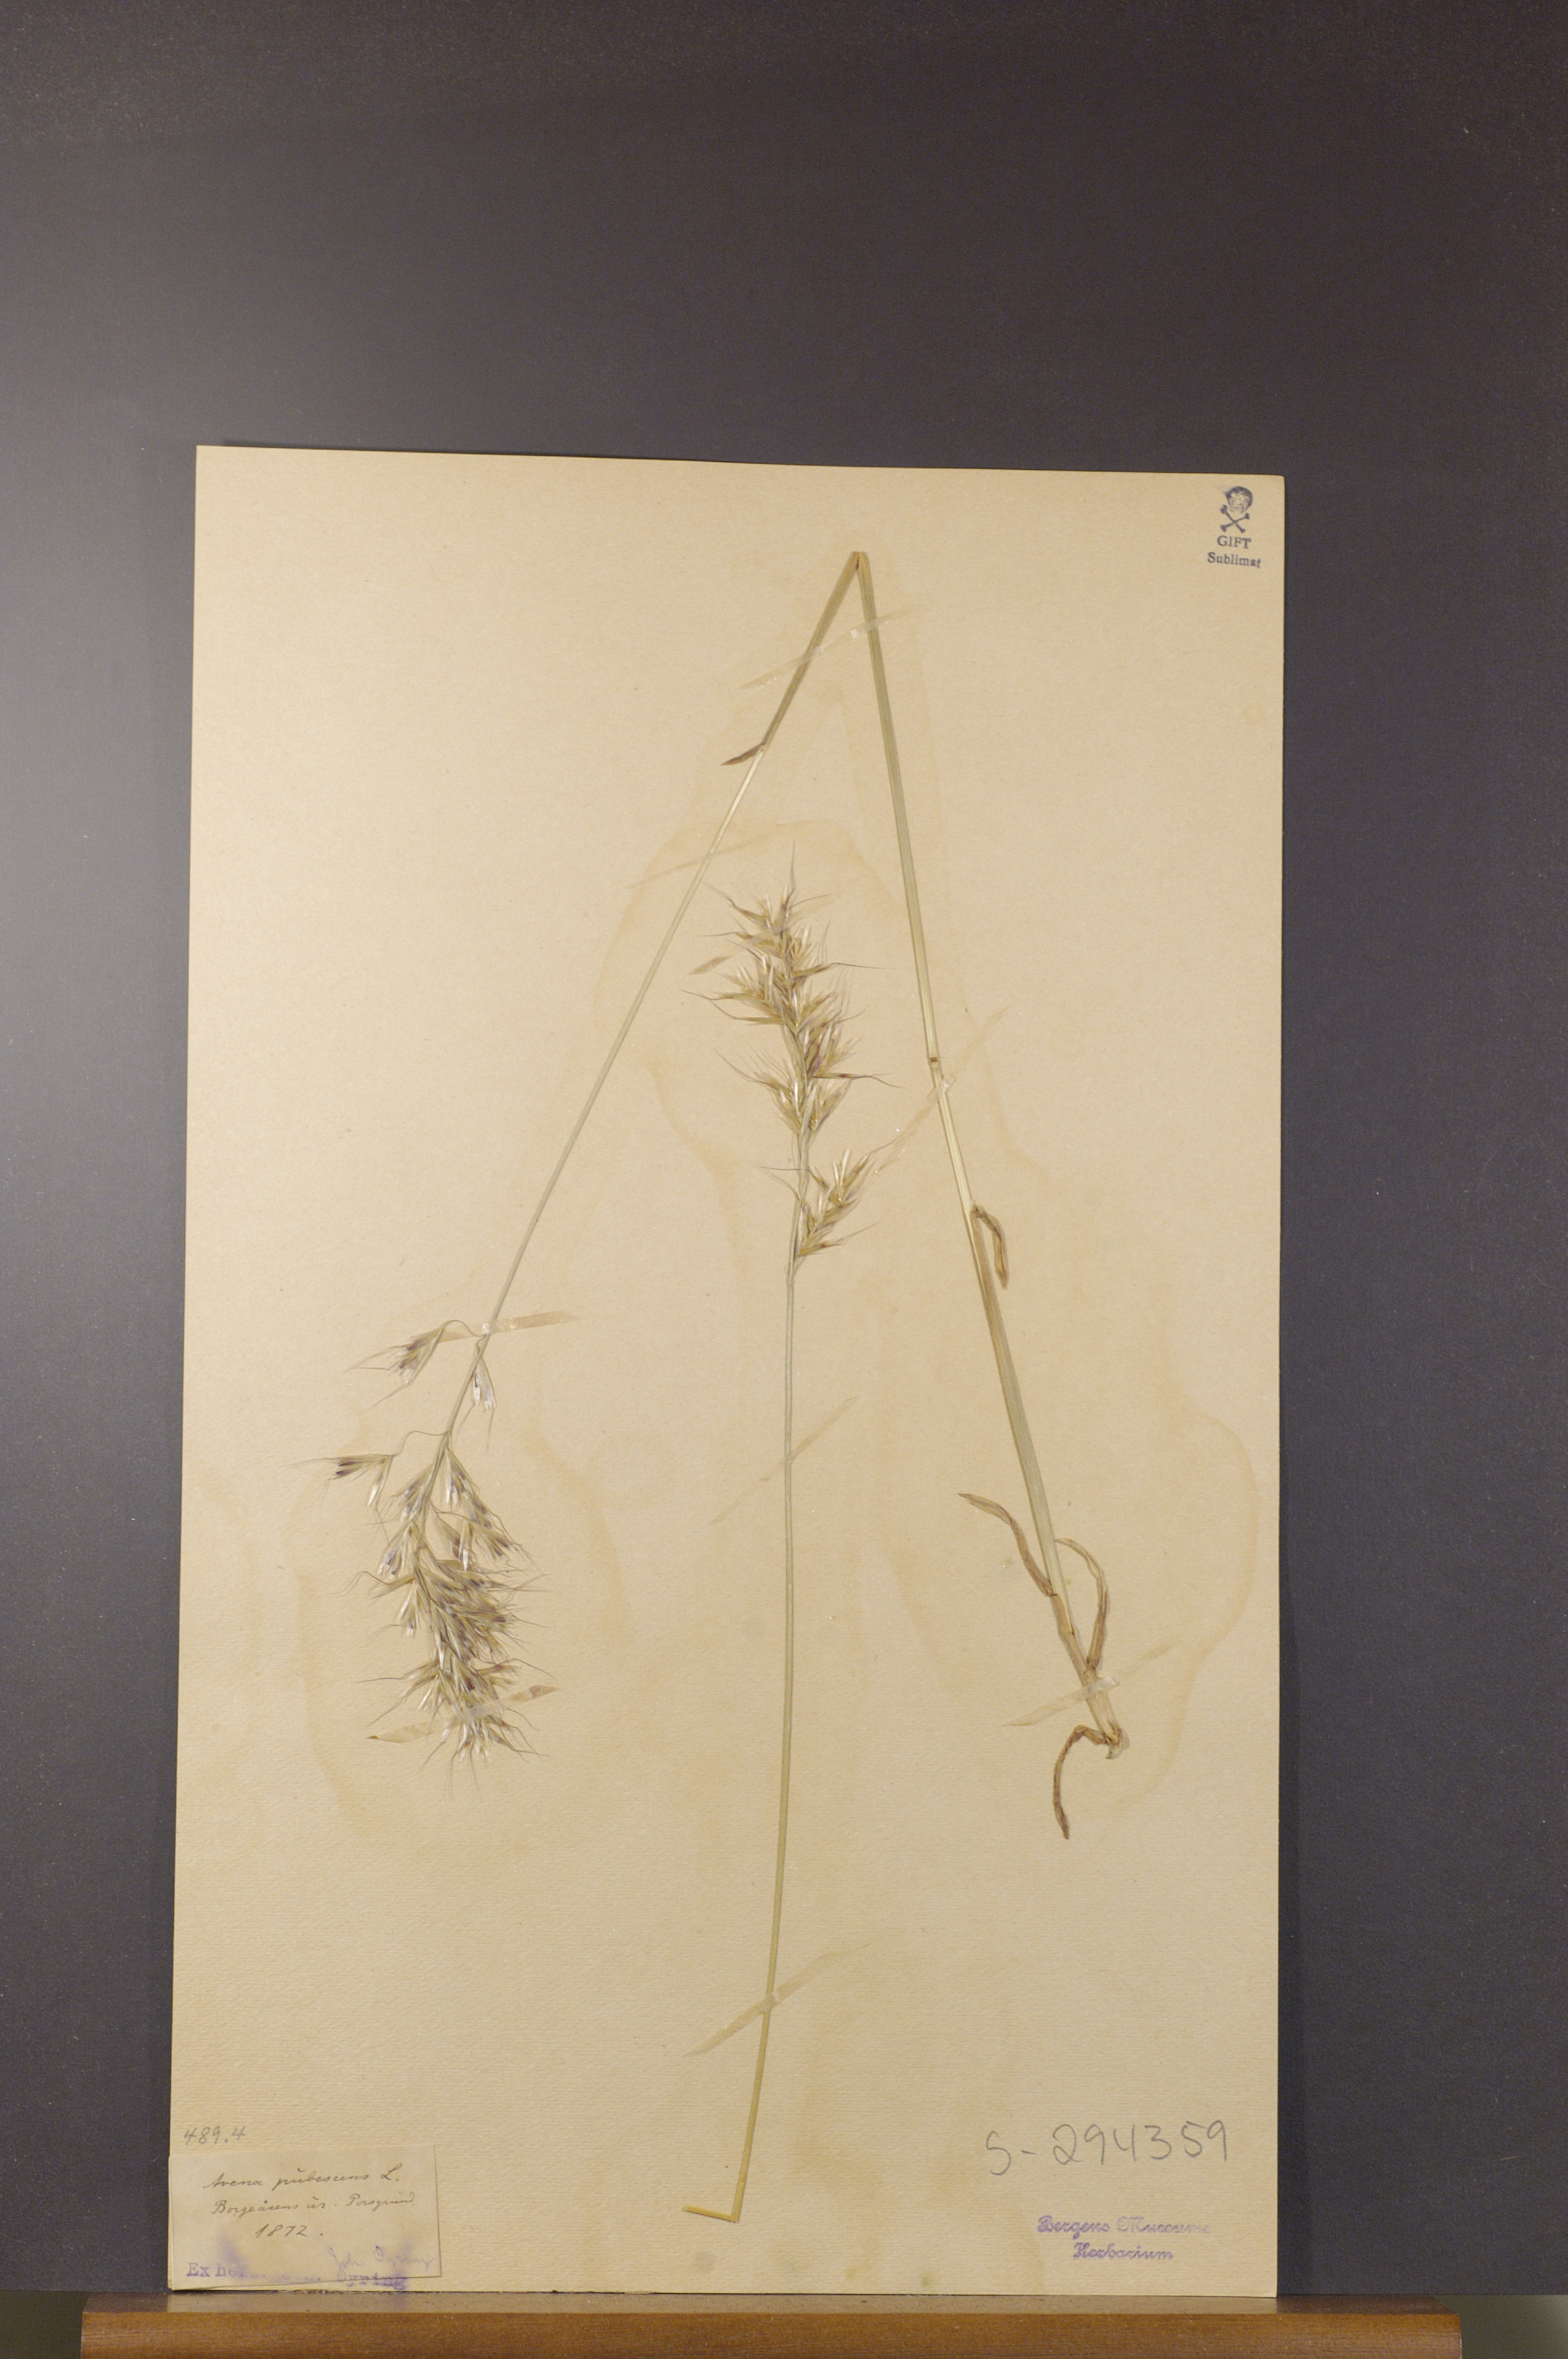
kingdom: Plantae
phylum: Tracheophyta
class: Liliopsida
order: Poales
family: Poaceae
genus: Avenula
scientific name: Avenula pubescens
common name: Downy alpine oatgrass
